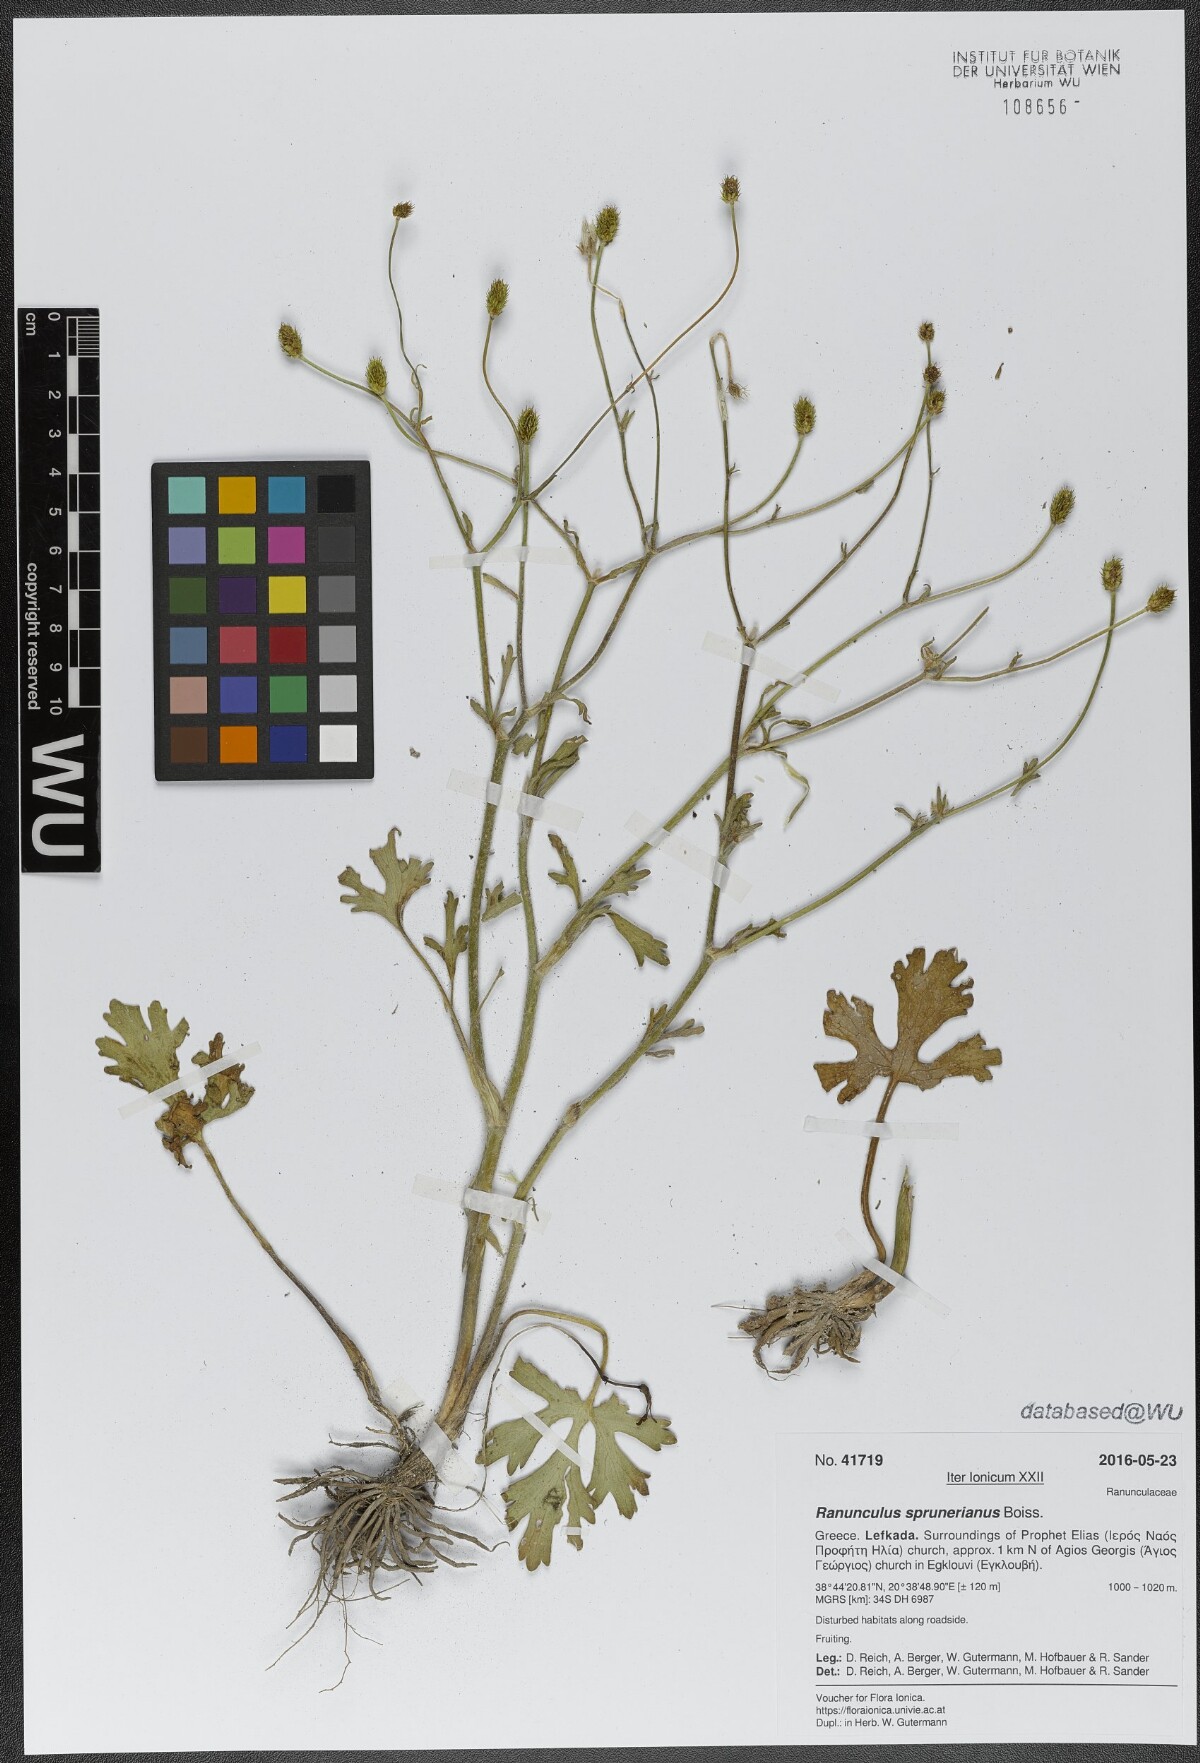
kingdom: Plantae
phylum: Tracheophyta
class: Magnoliopsida
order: Ranunculales
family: Ranunculaceae
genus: Ranunculus
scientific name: Ranunculus sprunerianus
